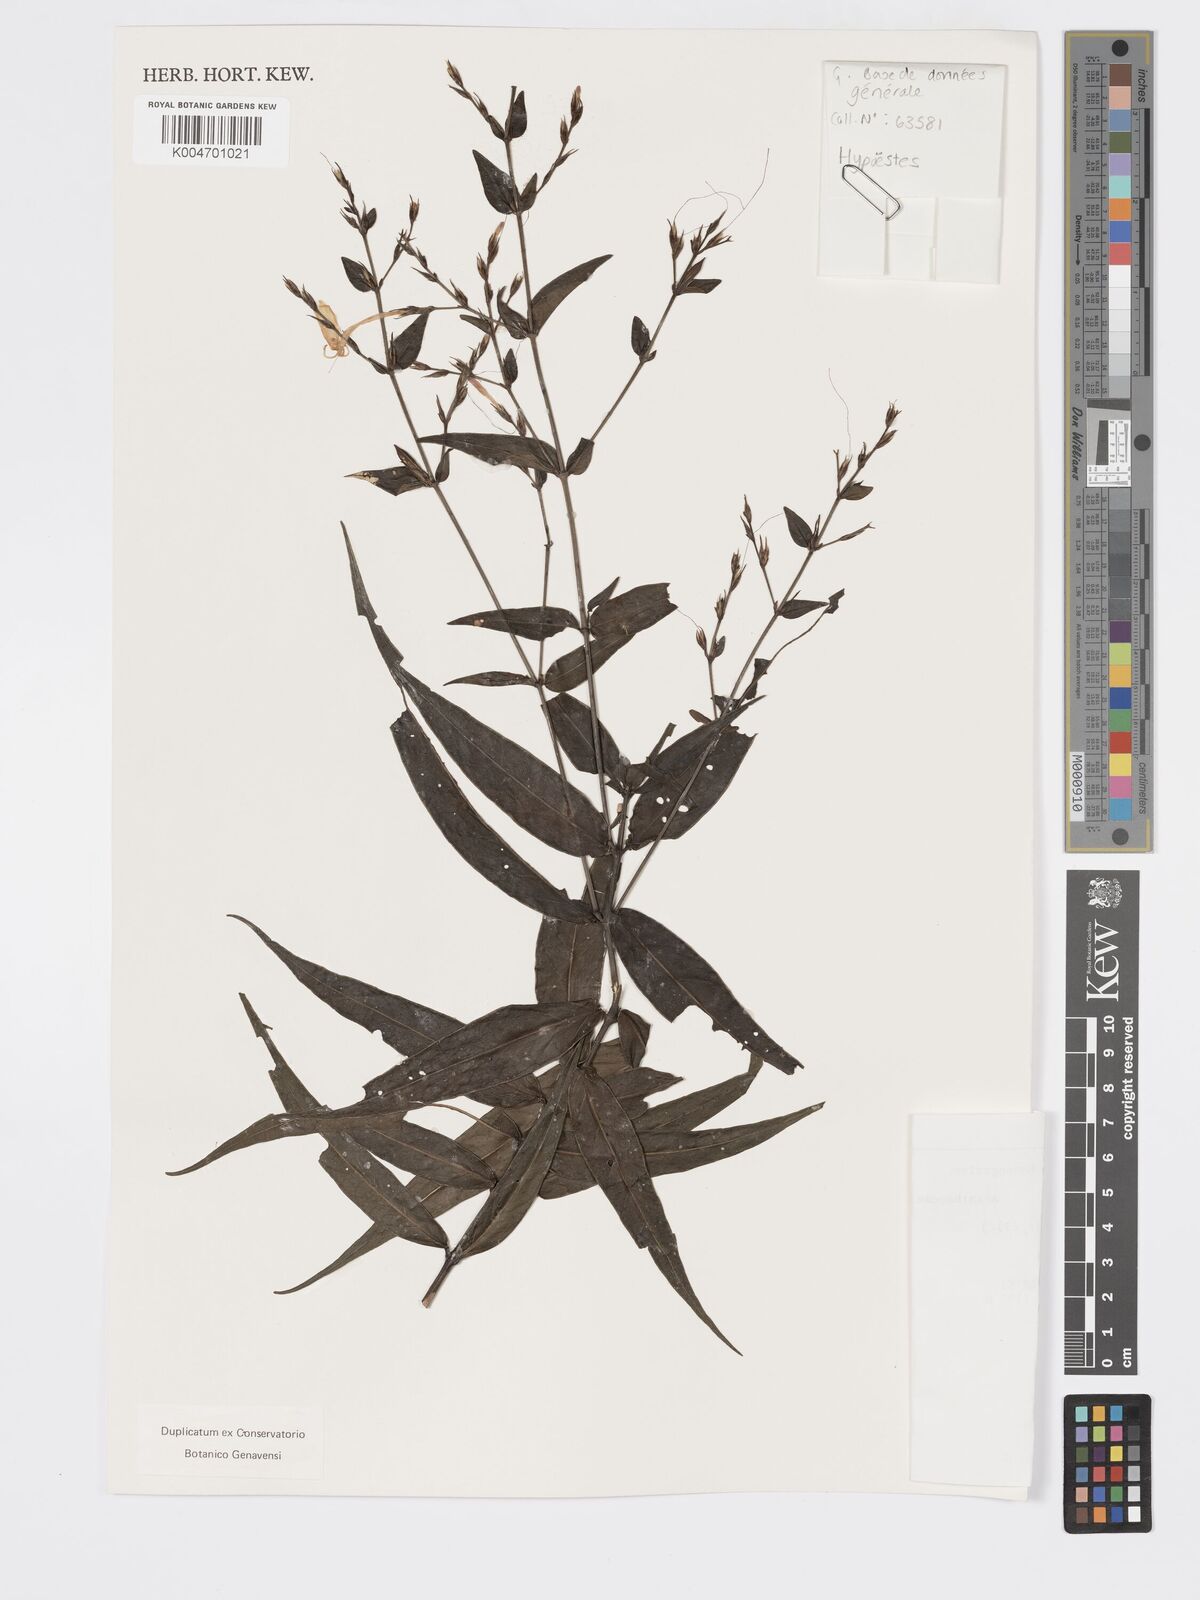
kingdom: Plantae
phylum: Tracheophyta
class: Magnoliopsida
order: Lamiales
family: Acanthaceae
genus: Hypoestes
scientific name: Hypoestes
